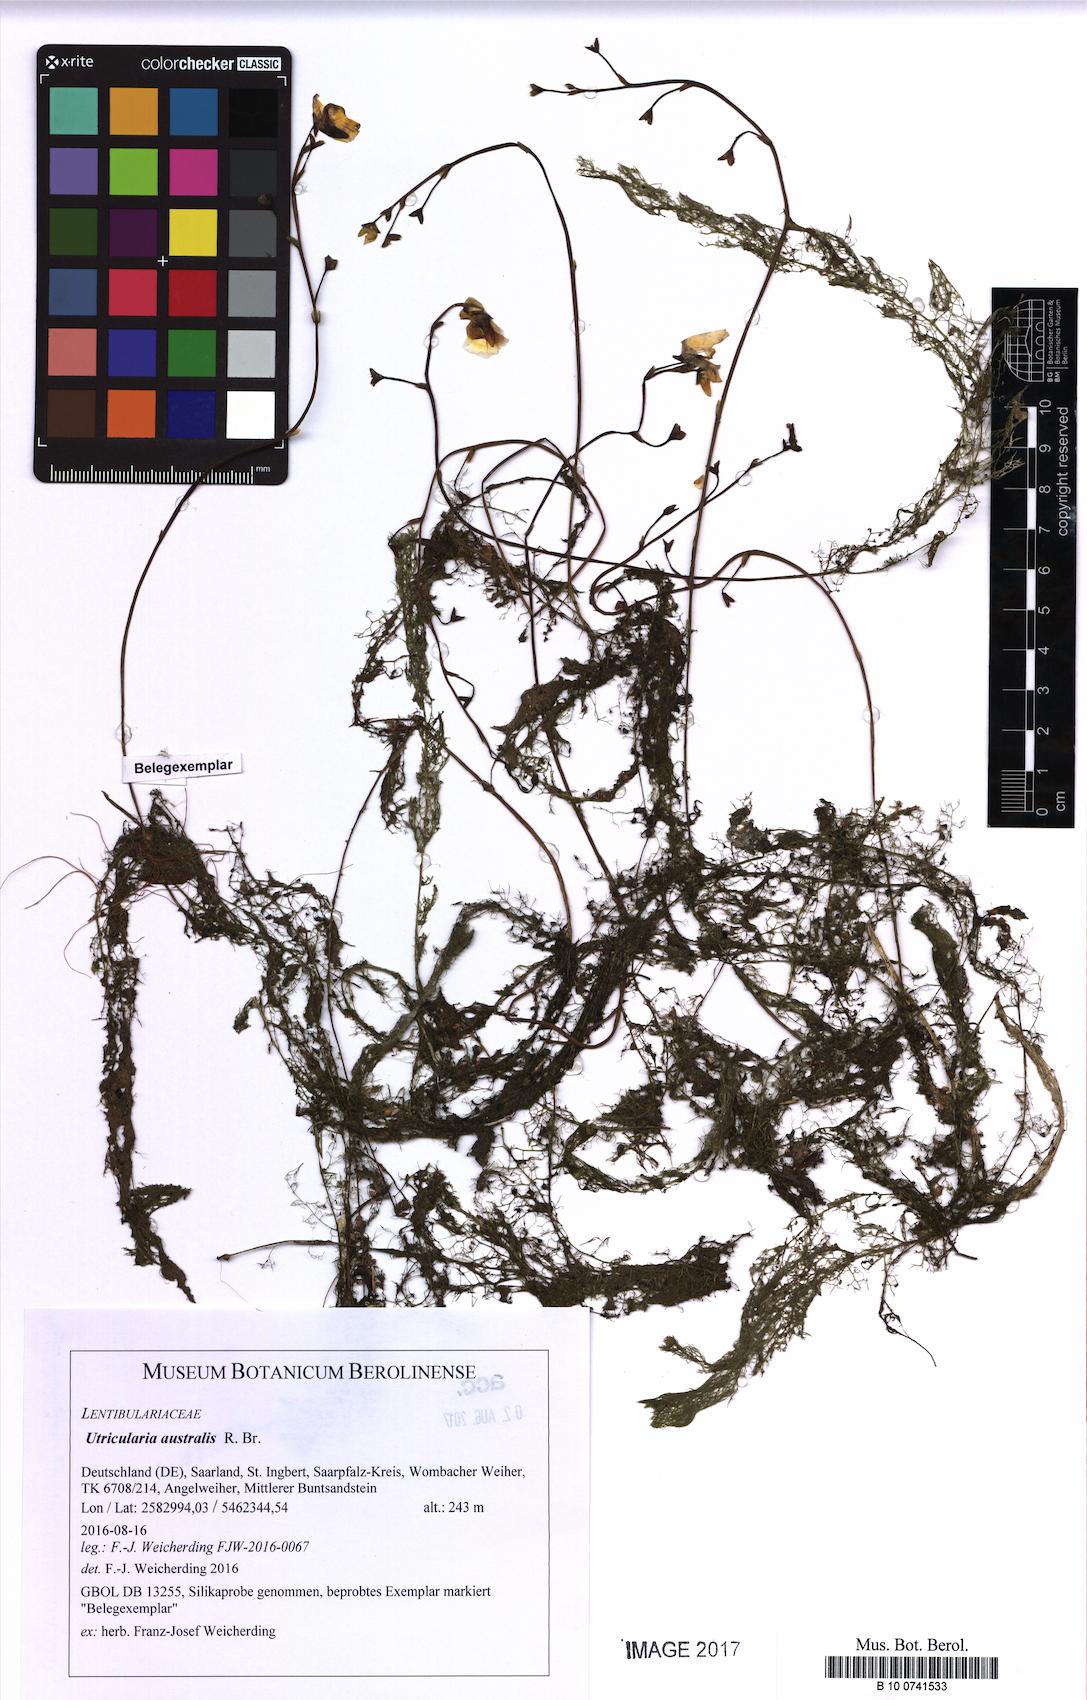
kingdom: Plantae
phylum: Tracheophyta
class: Magnoliopsida
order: Lamiales
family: Lentibulariaceae
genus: Utricularia
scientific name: Utricularia australis
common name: Bladderwort
